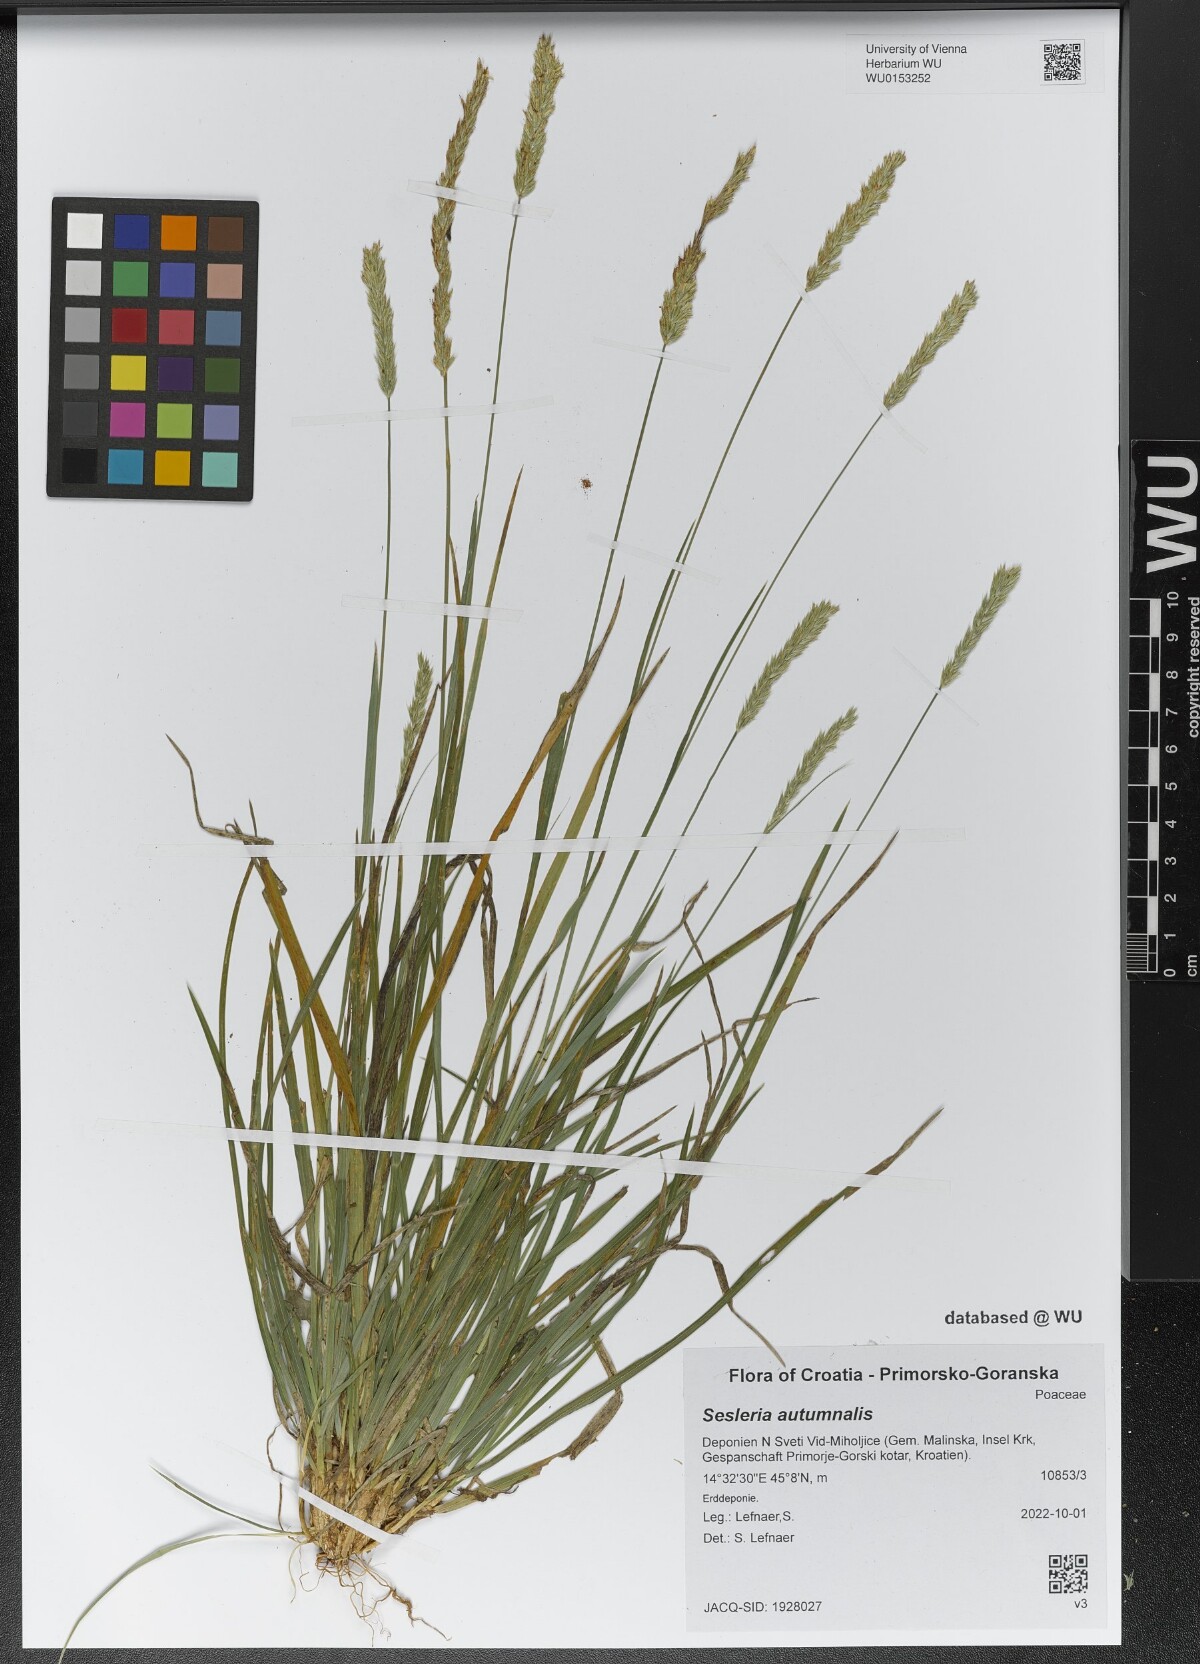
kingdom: Plantae
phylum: Tracheophyta
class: Liliopsida
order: Poales
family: Poaceae
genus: Sesleria
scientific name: Sesleria autumnalis
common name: Autumn moor grass
